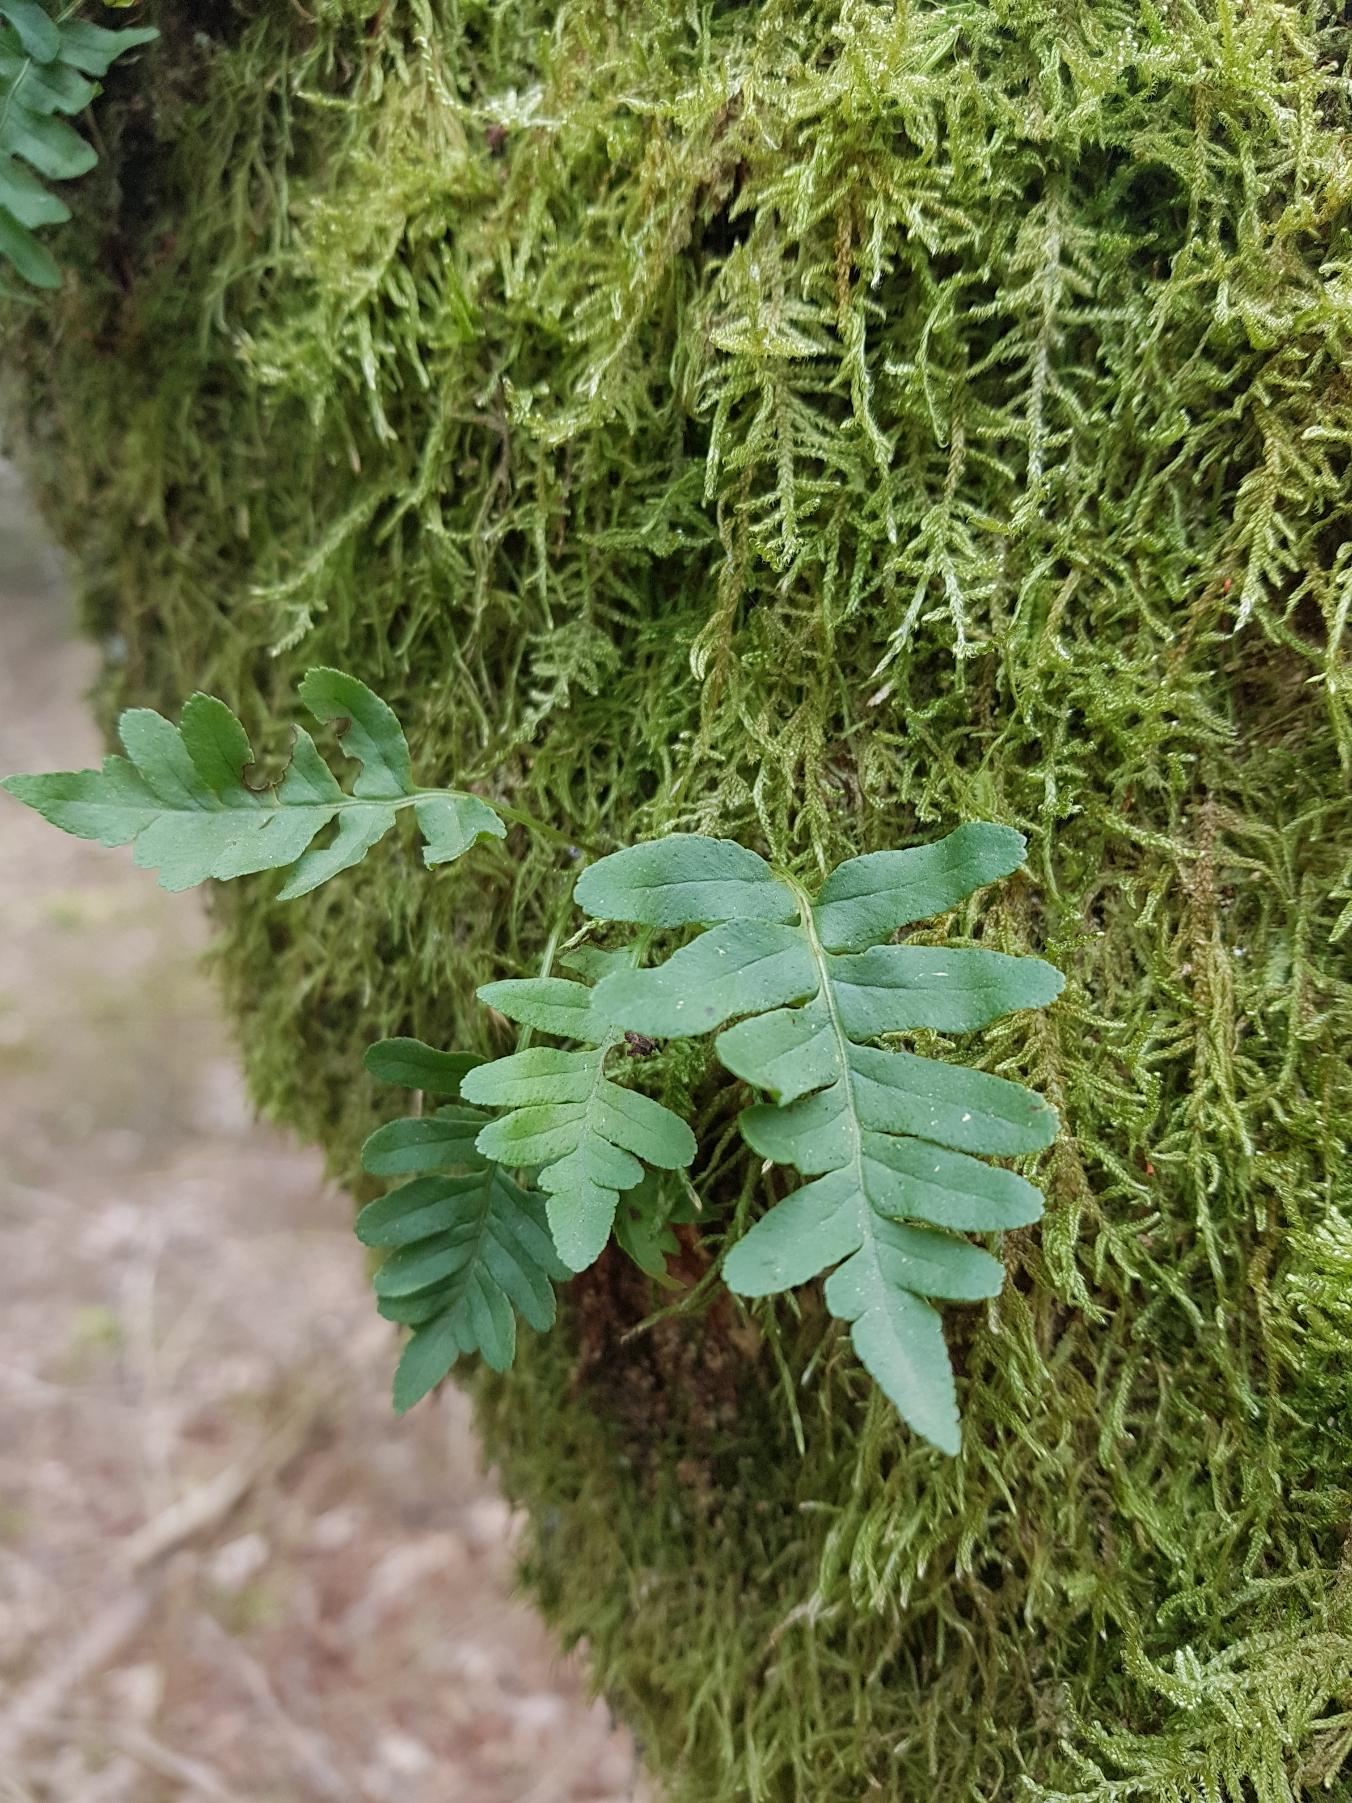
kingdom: Plantae
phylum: Tracheophyta
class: Polypodiopsida
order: Polypodiales
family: Polypodiaceae
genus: Polypodium
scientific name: Polypodium vulgare
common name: Almindelig engelsød
